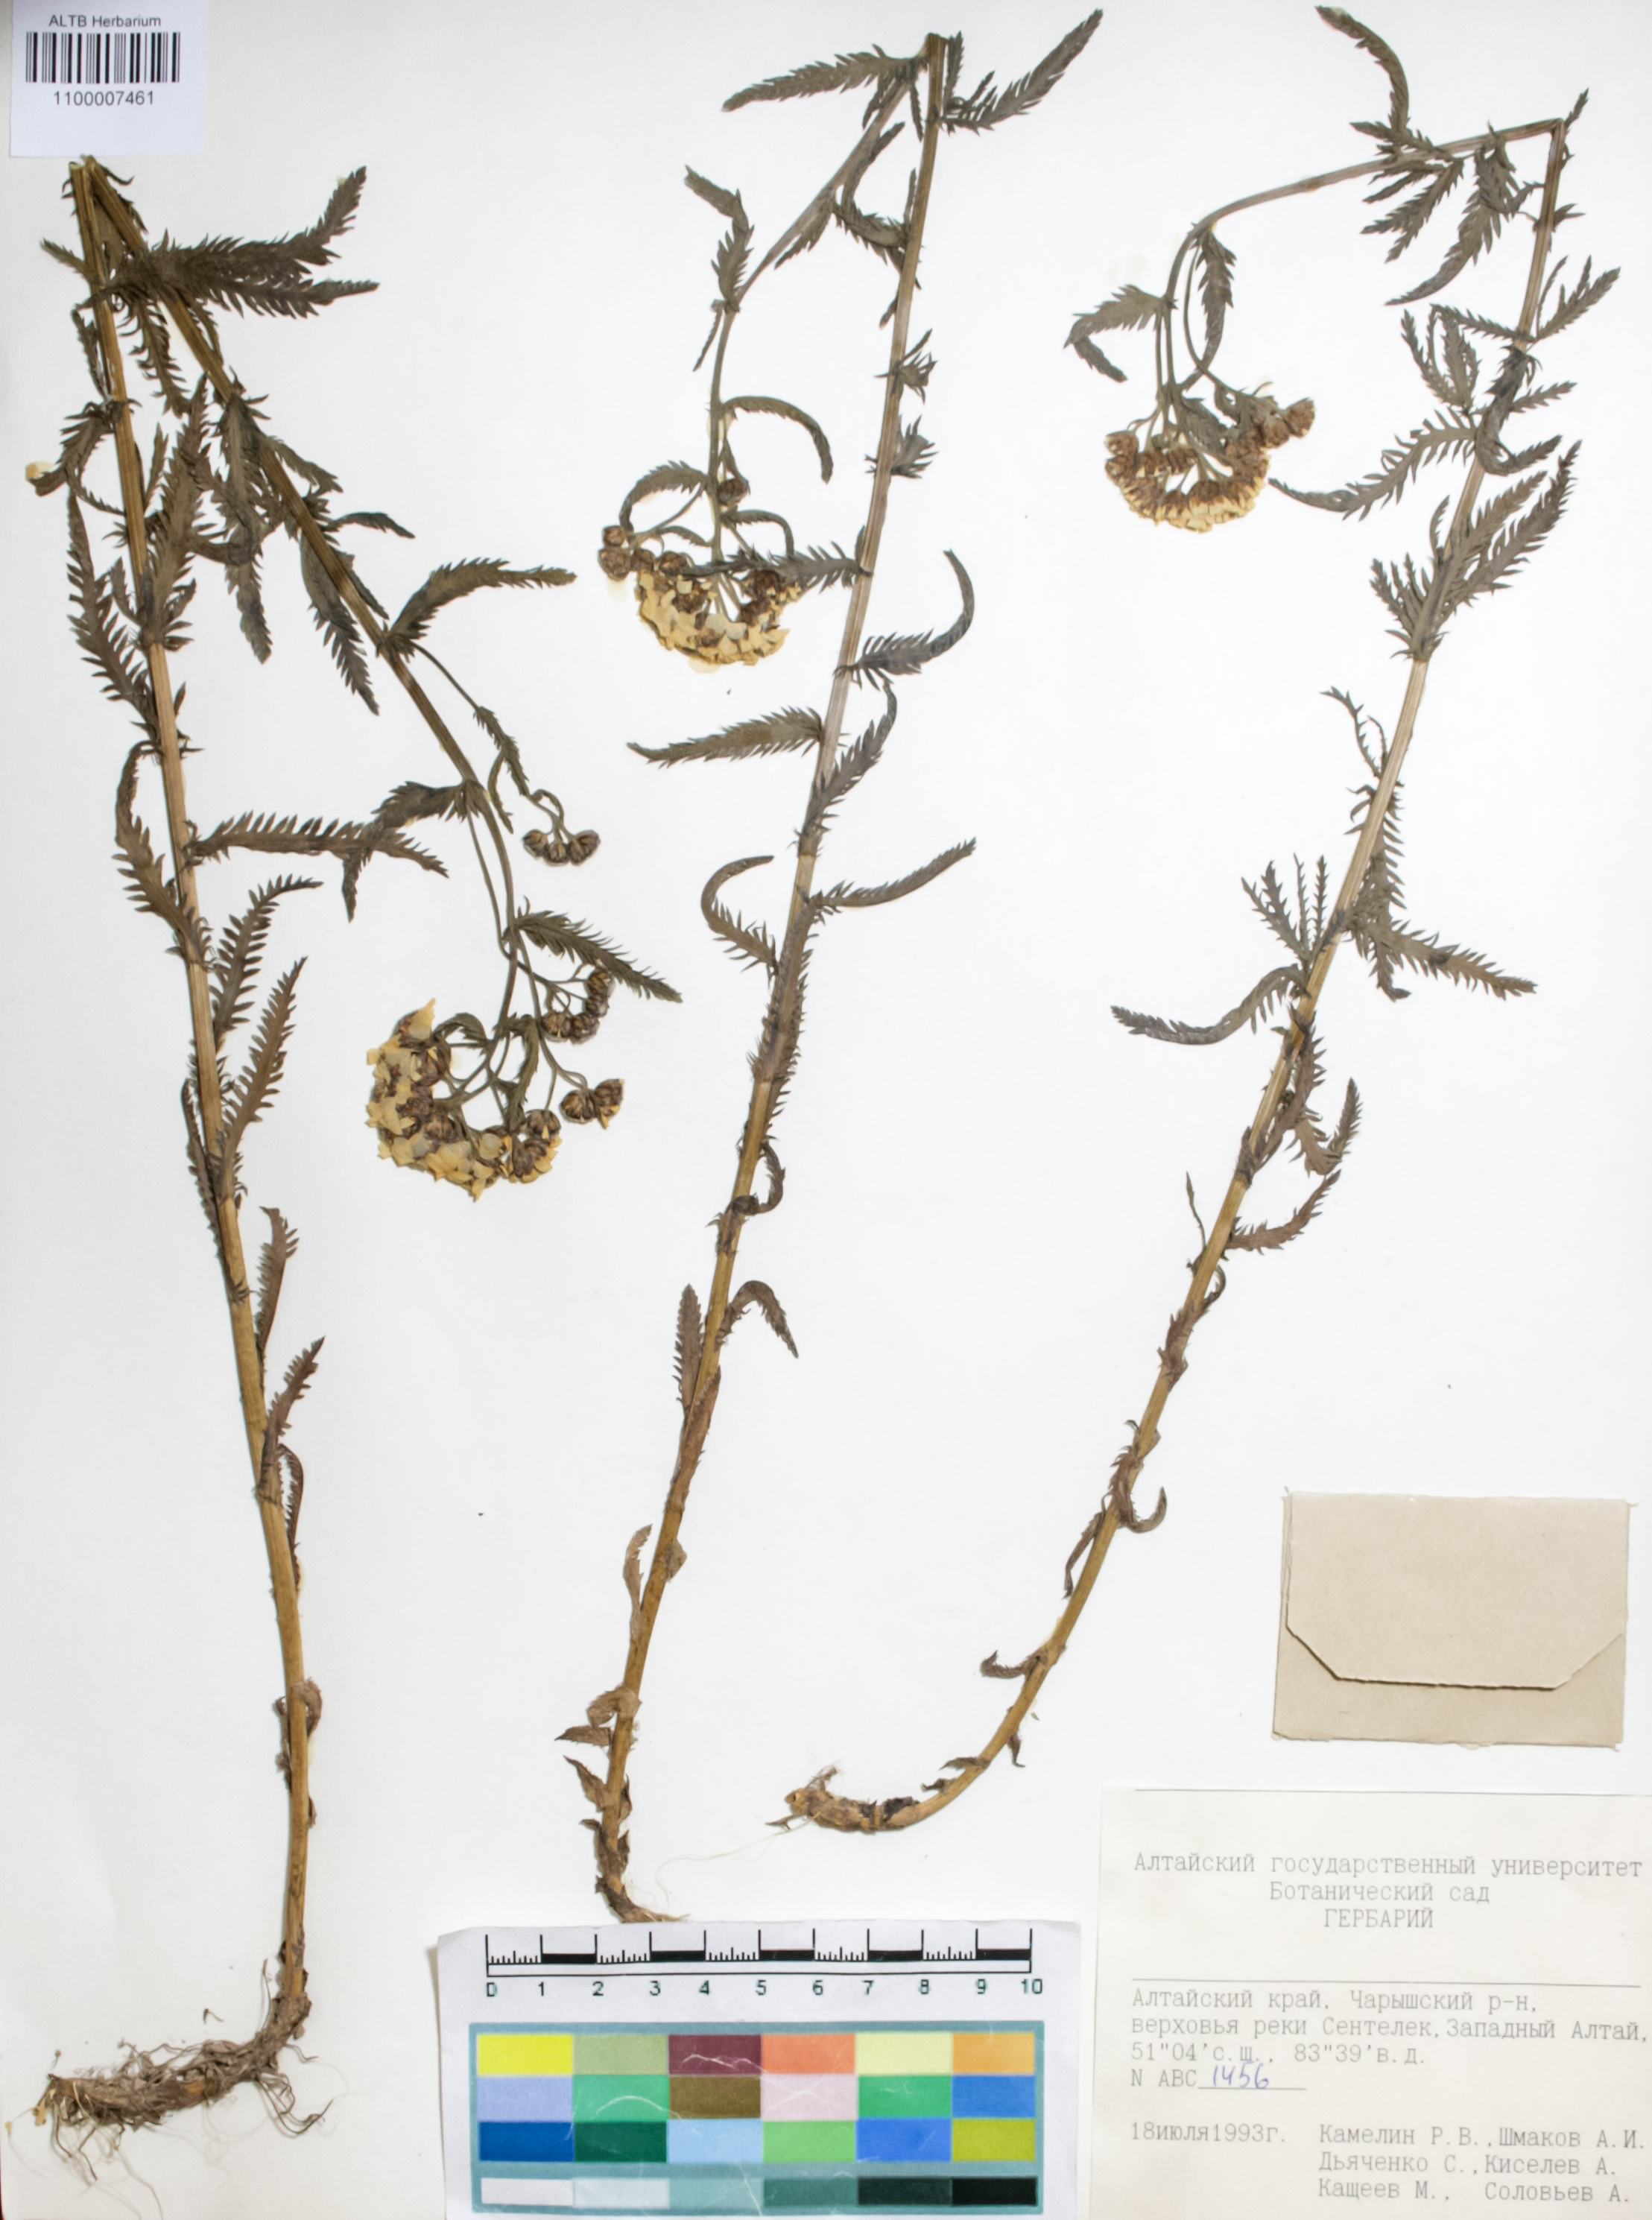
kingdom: Plantae
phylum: Tracheophyta
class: Magnoliopsida
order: Boraginales
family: Boraginaceae
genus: Rindera
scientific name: Rindera tetraspis
